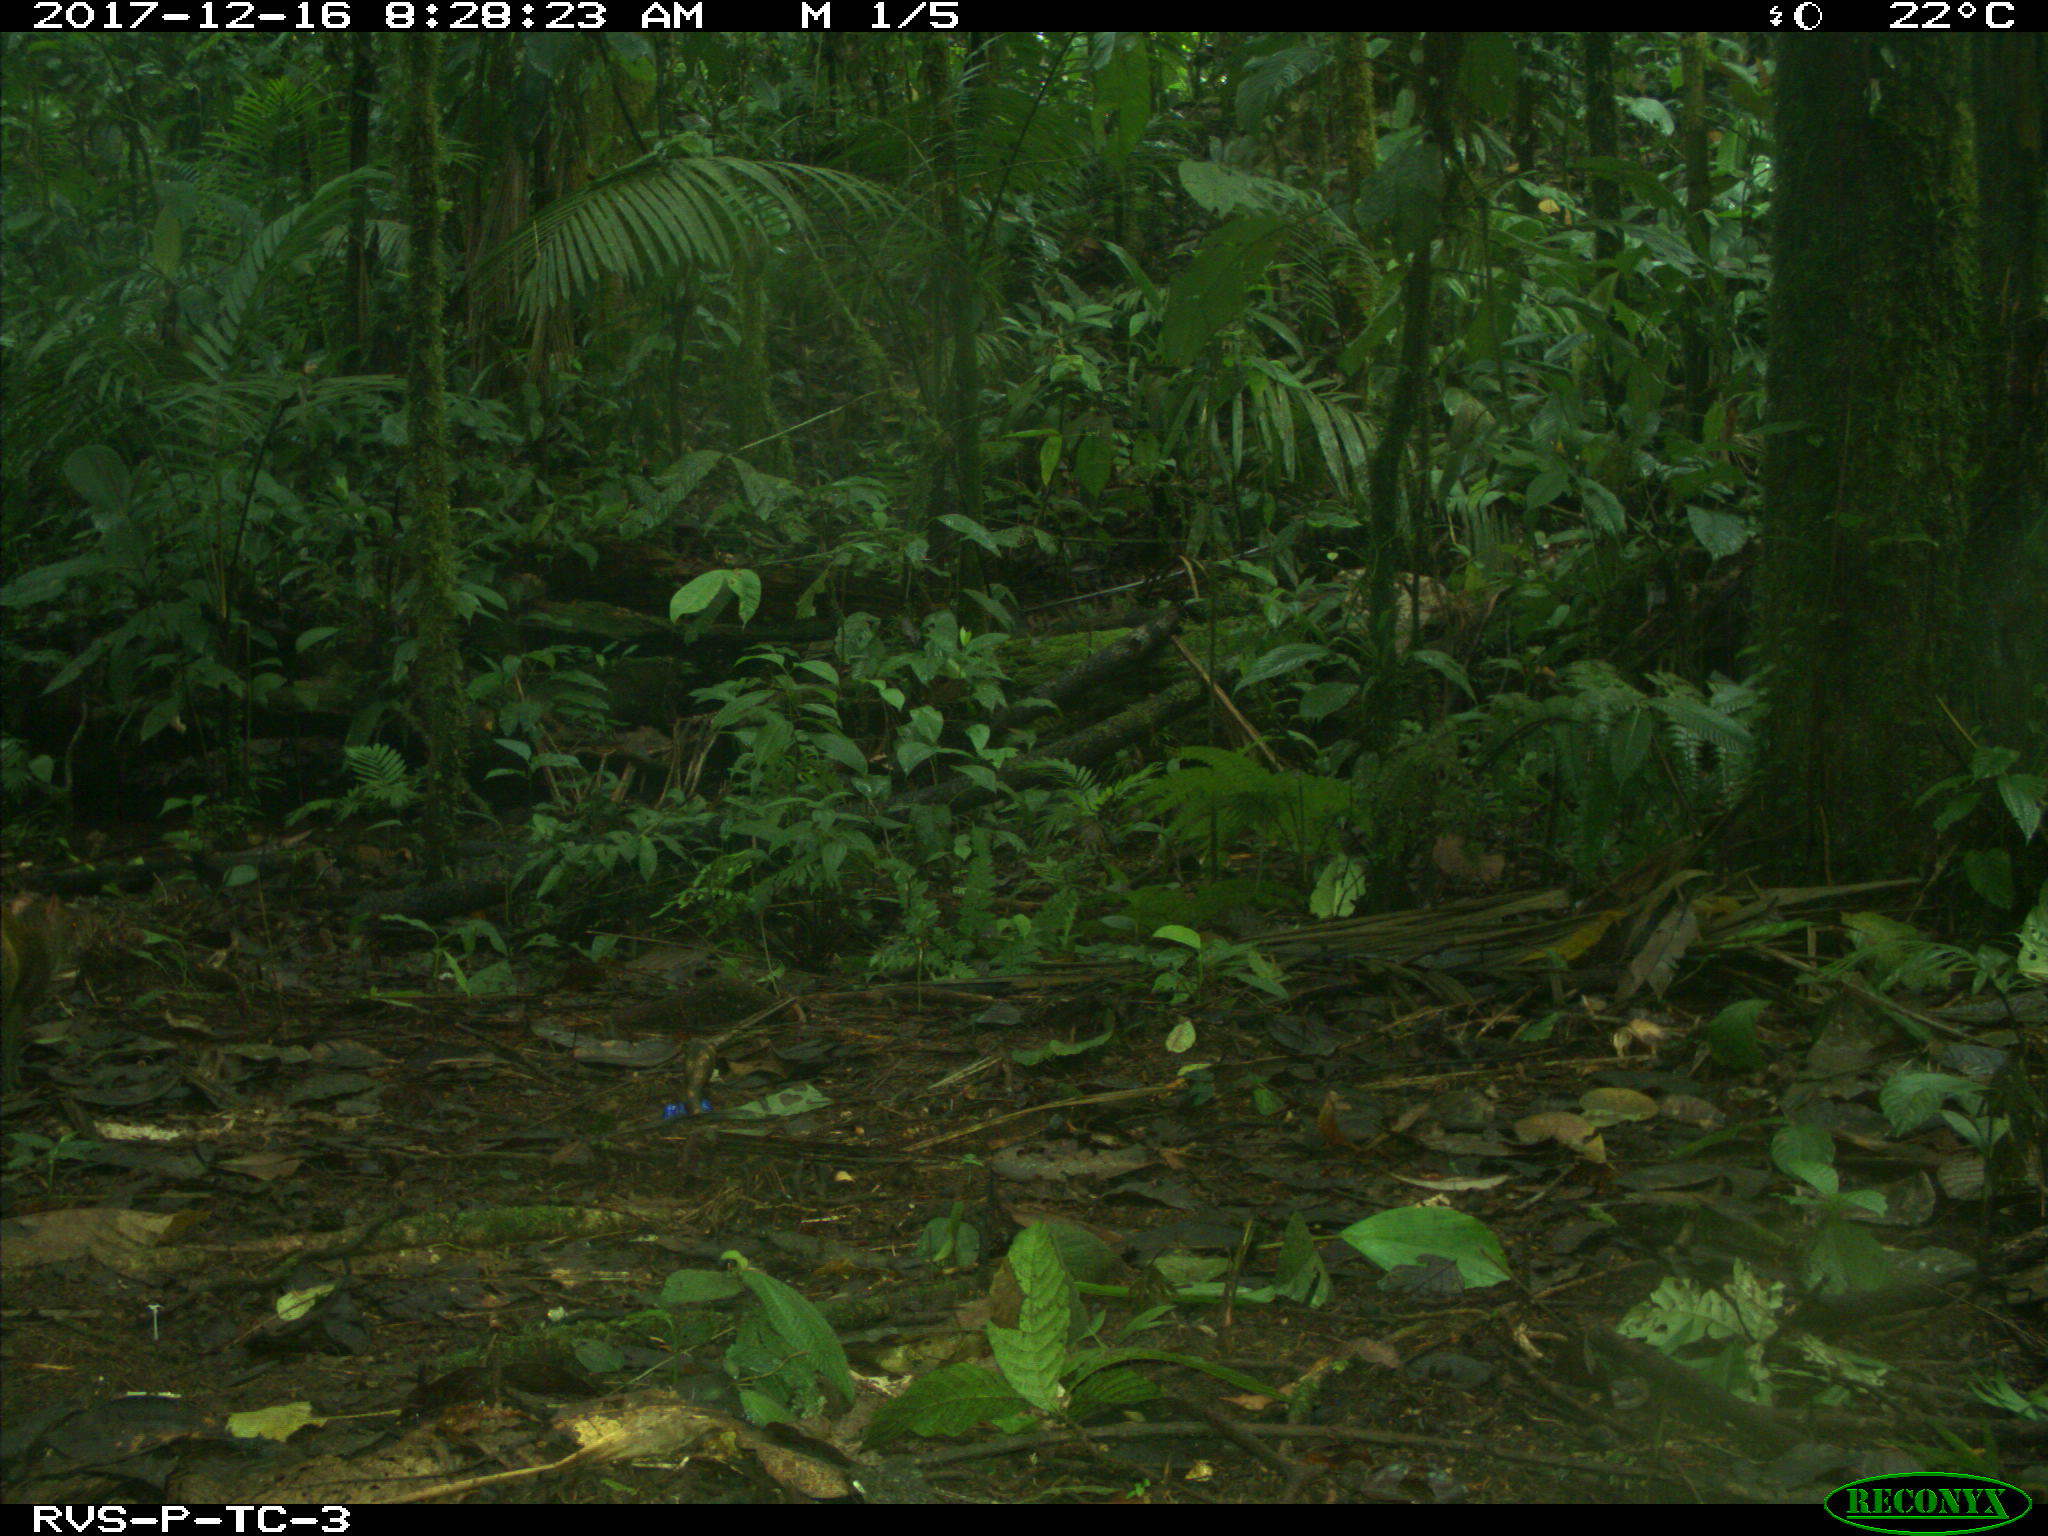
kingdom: Animalia
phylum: Chordata
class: Mammalia
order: Rodentia
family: Dasyproctidae
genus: Dasyprocta
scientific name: Dasyprocta punctata
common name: Central american agouti
